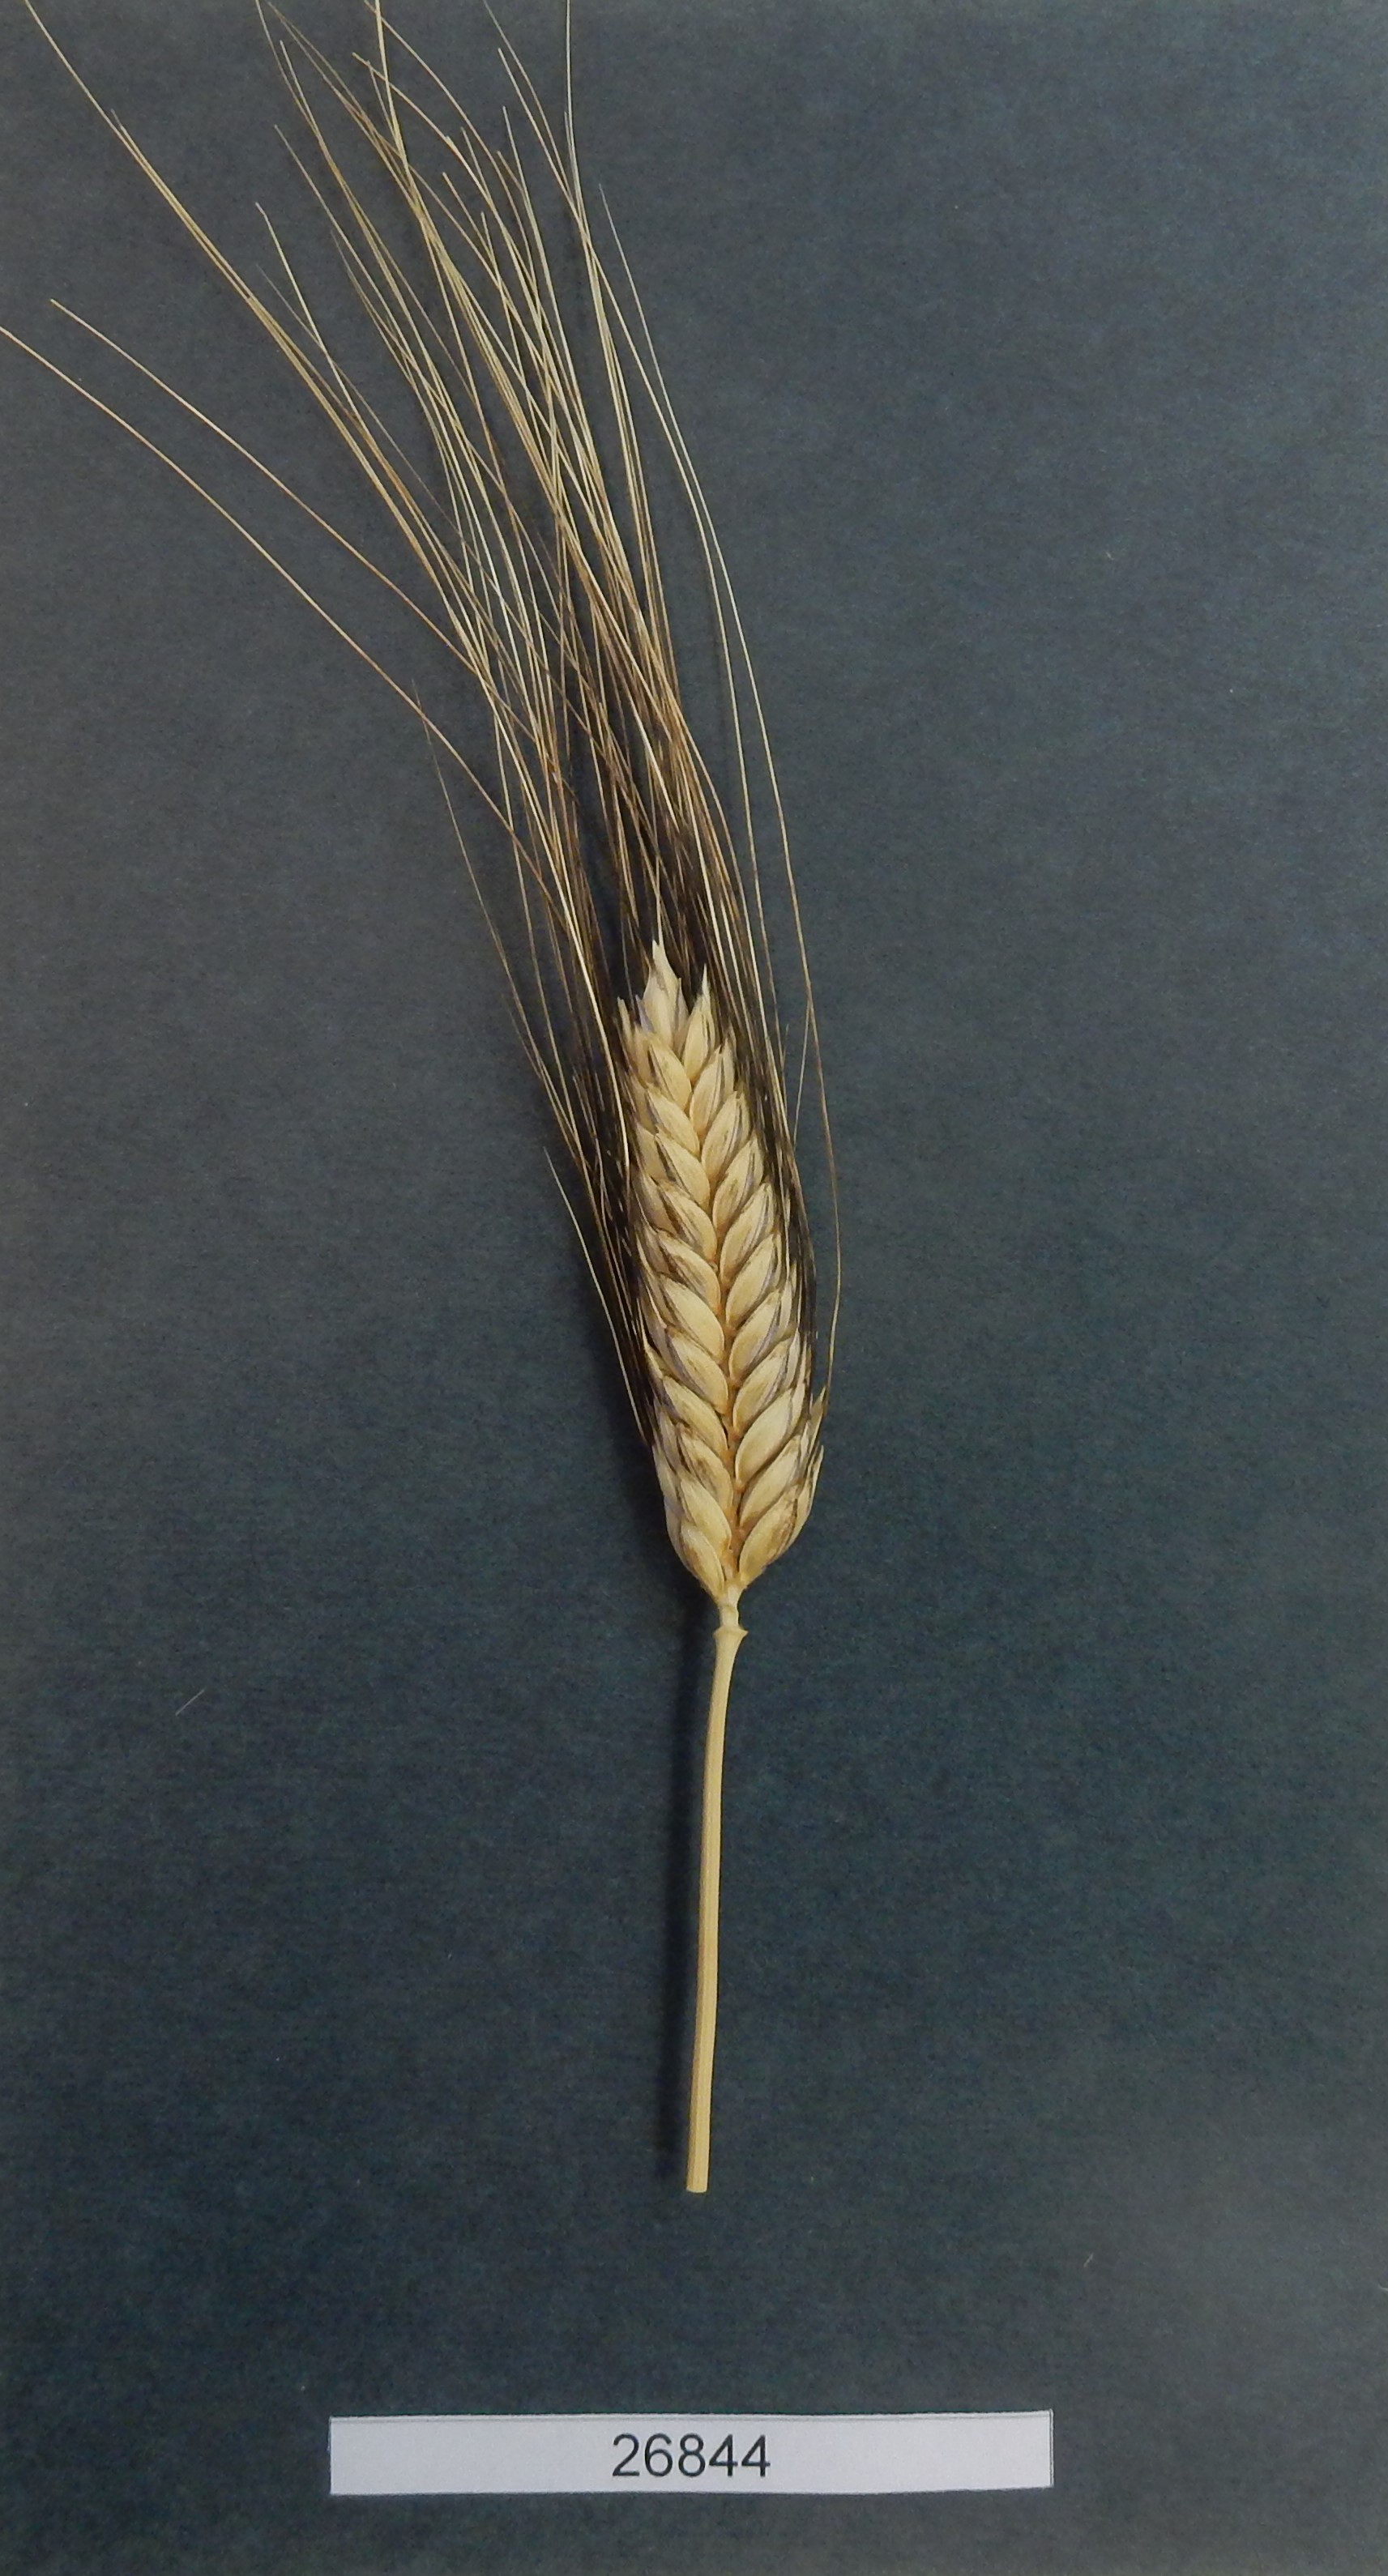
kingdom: Plantae
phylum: Tracheophyta
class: Liliopsida
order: Poales
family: Poaceae
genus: Triticum
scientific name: Triticum
